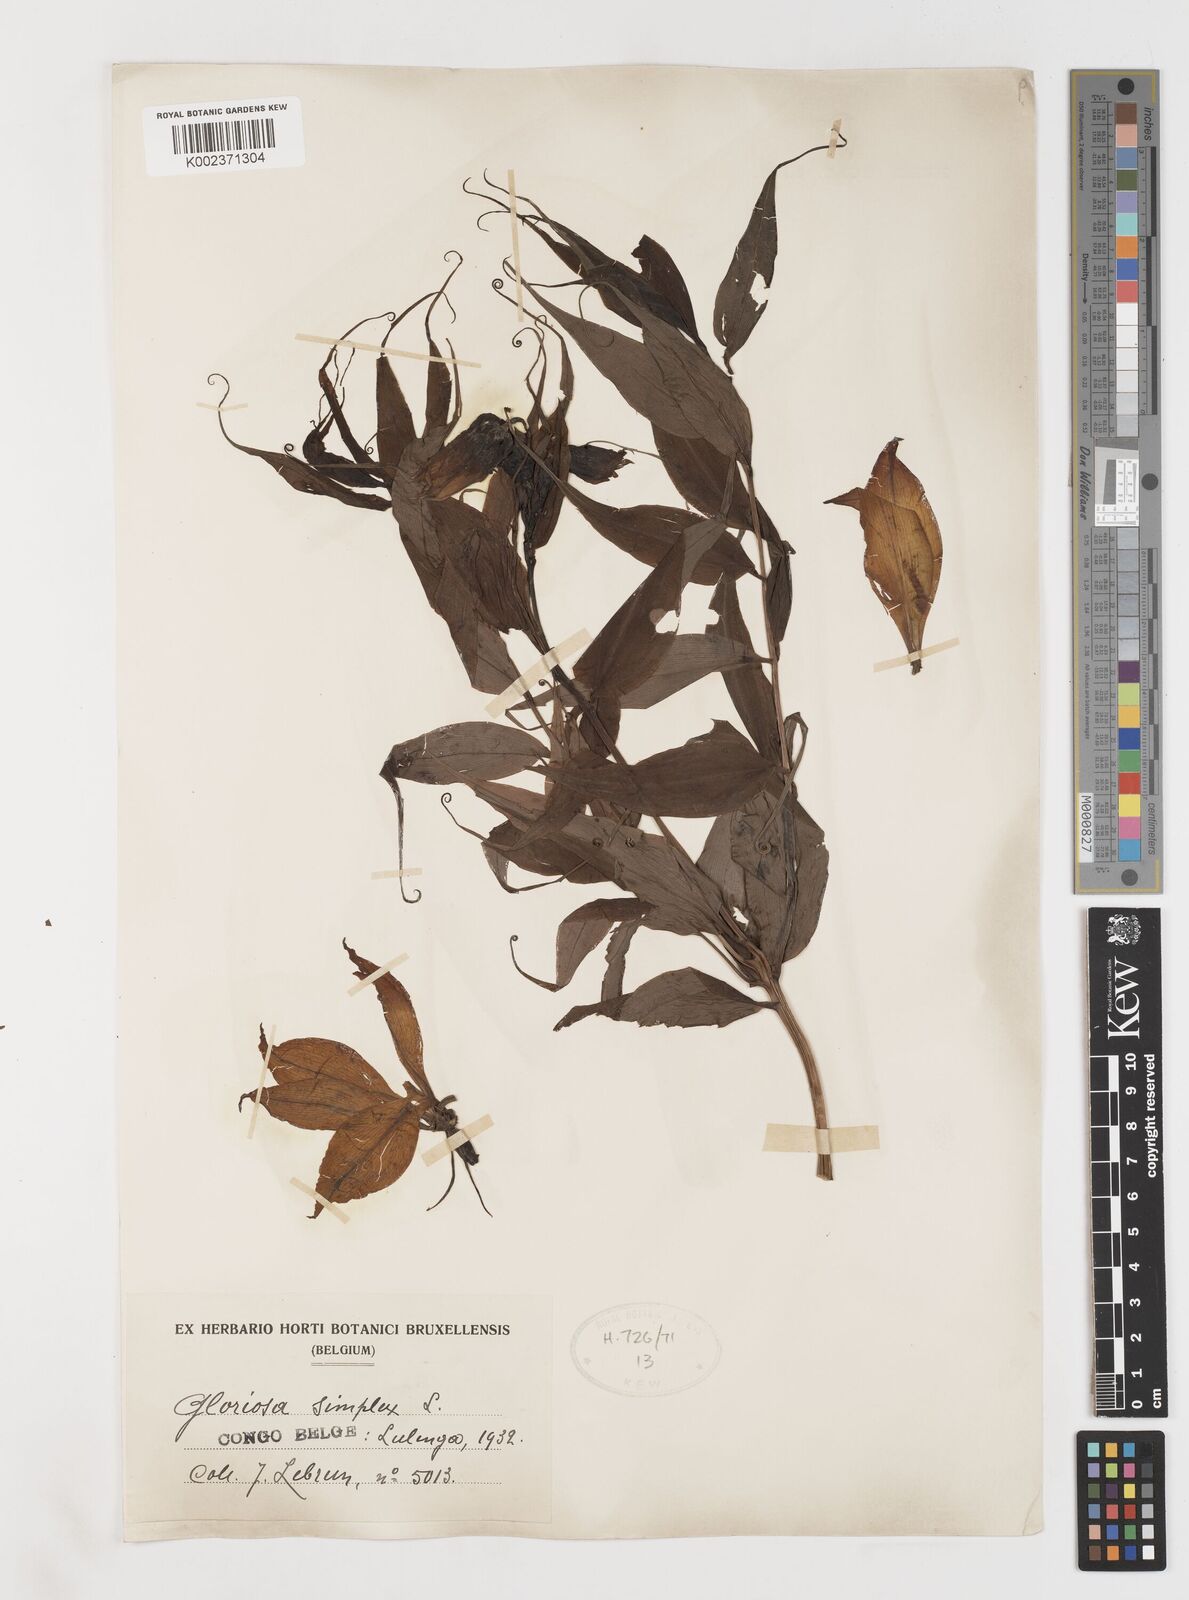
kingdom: Plantae
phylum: Tracheophyta
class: Liliopsida
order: Liliales
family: Colchicaceae
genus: Gloriosa
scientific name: Gloriosa simplex
